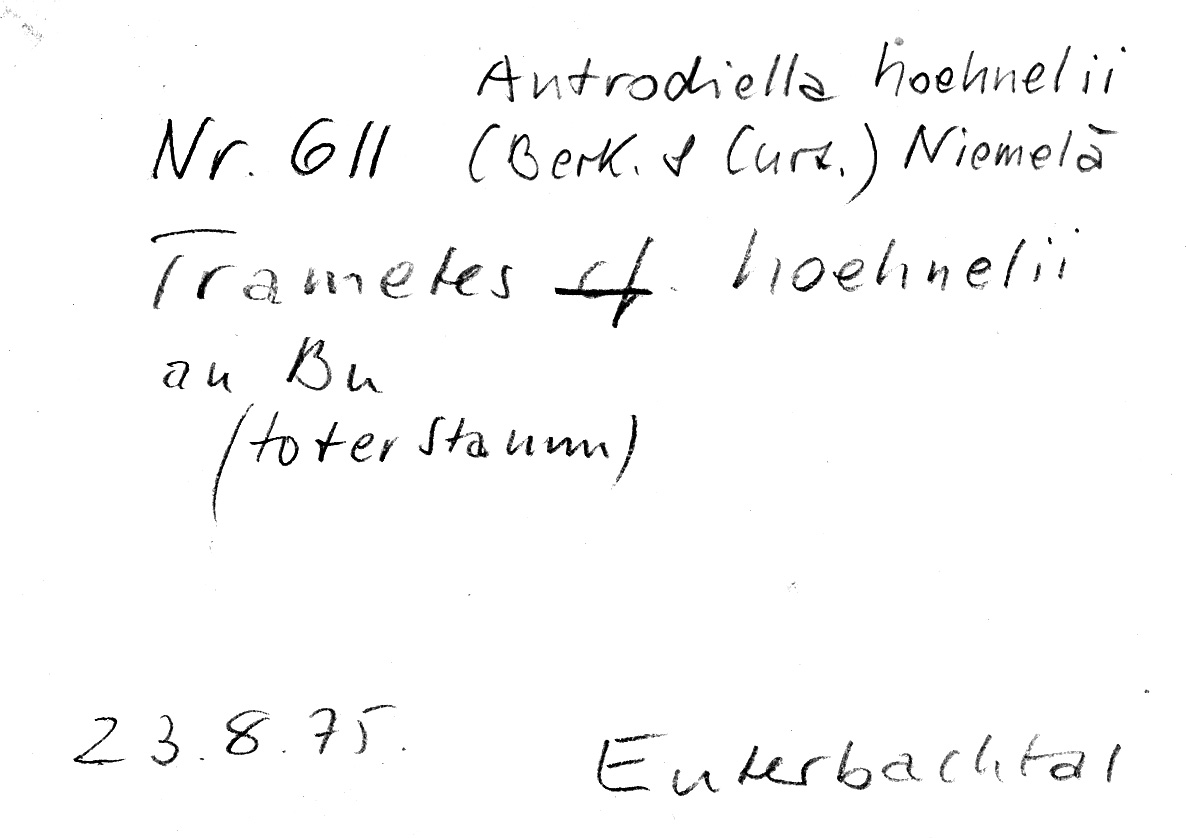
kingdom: Plantae
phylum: Tracheophyta
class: Magnoliopsida
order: Fagales
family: Fagaceae
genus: Fagus
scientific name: Fagus sylvatica
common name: Beech
